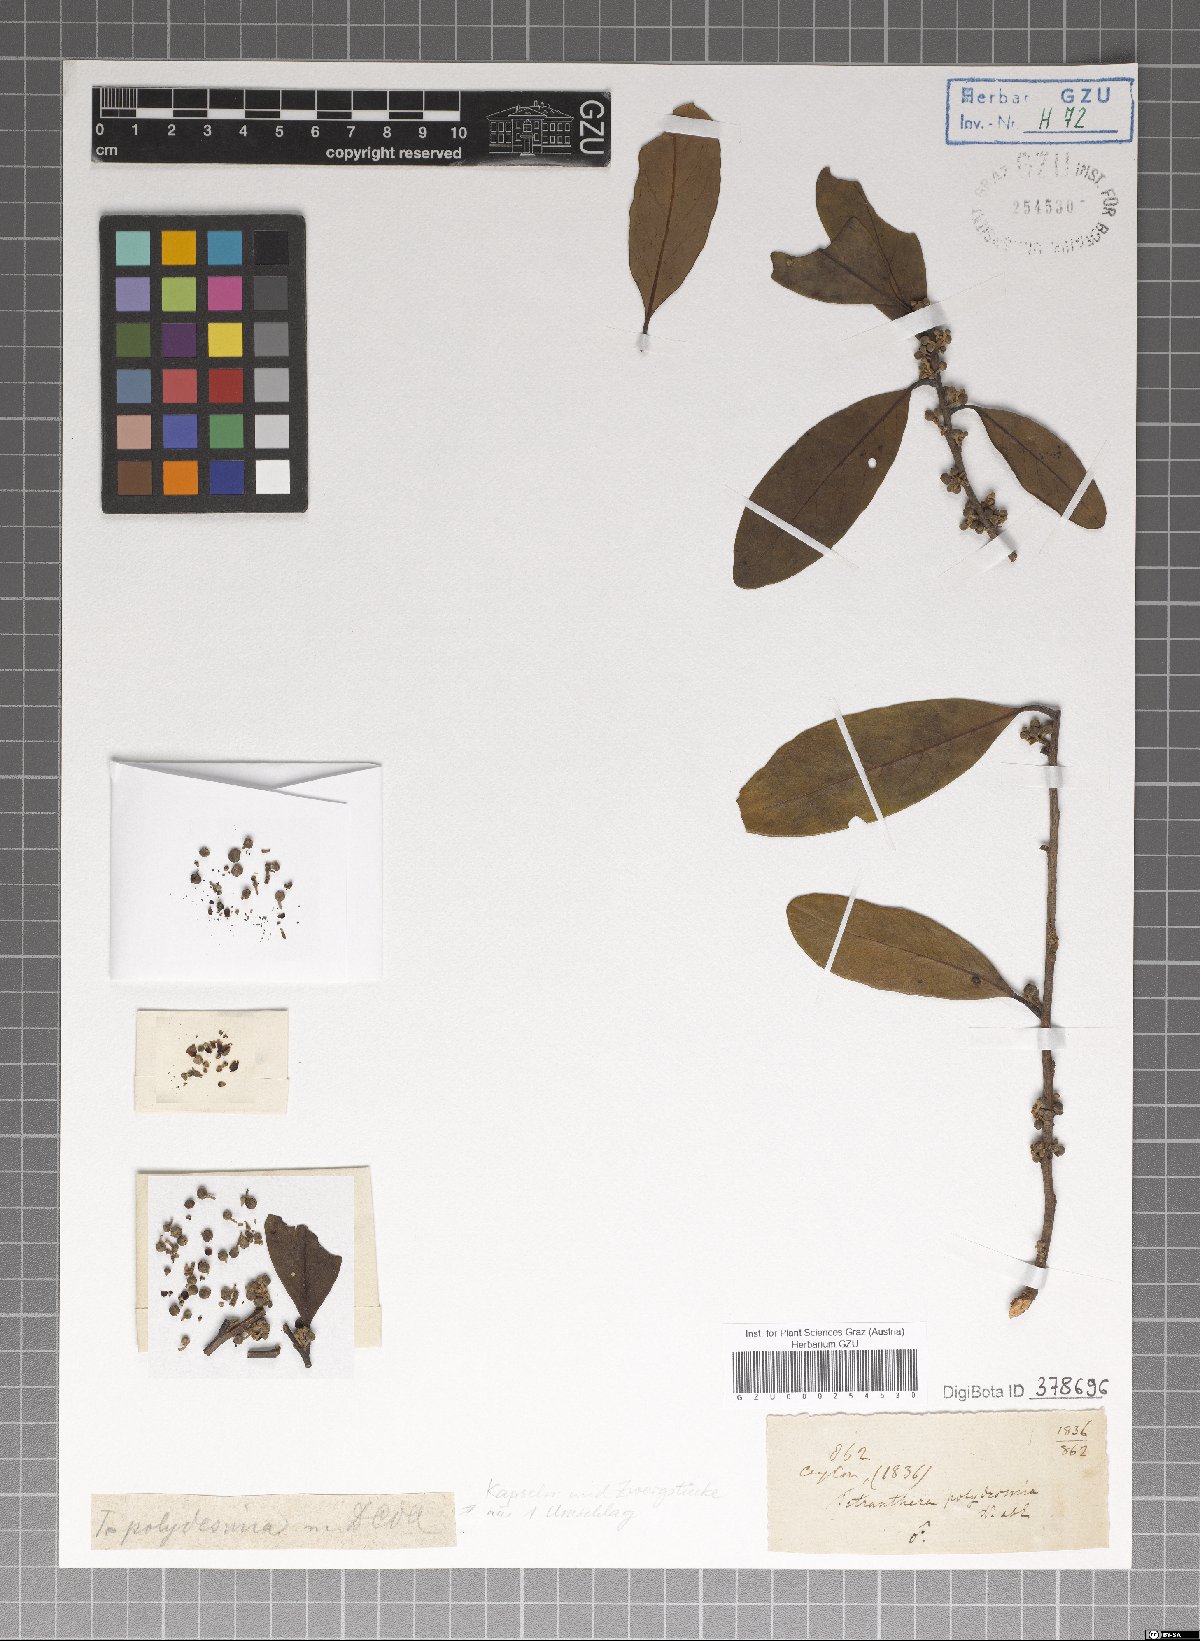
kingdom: Plantae
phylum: Tracheophyta
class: Magnoliopsida
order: Laurales
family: Lauraceae
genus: Litsea
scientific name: Litsea
